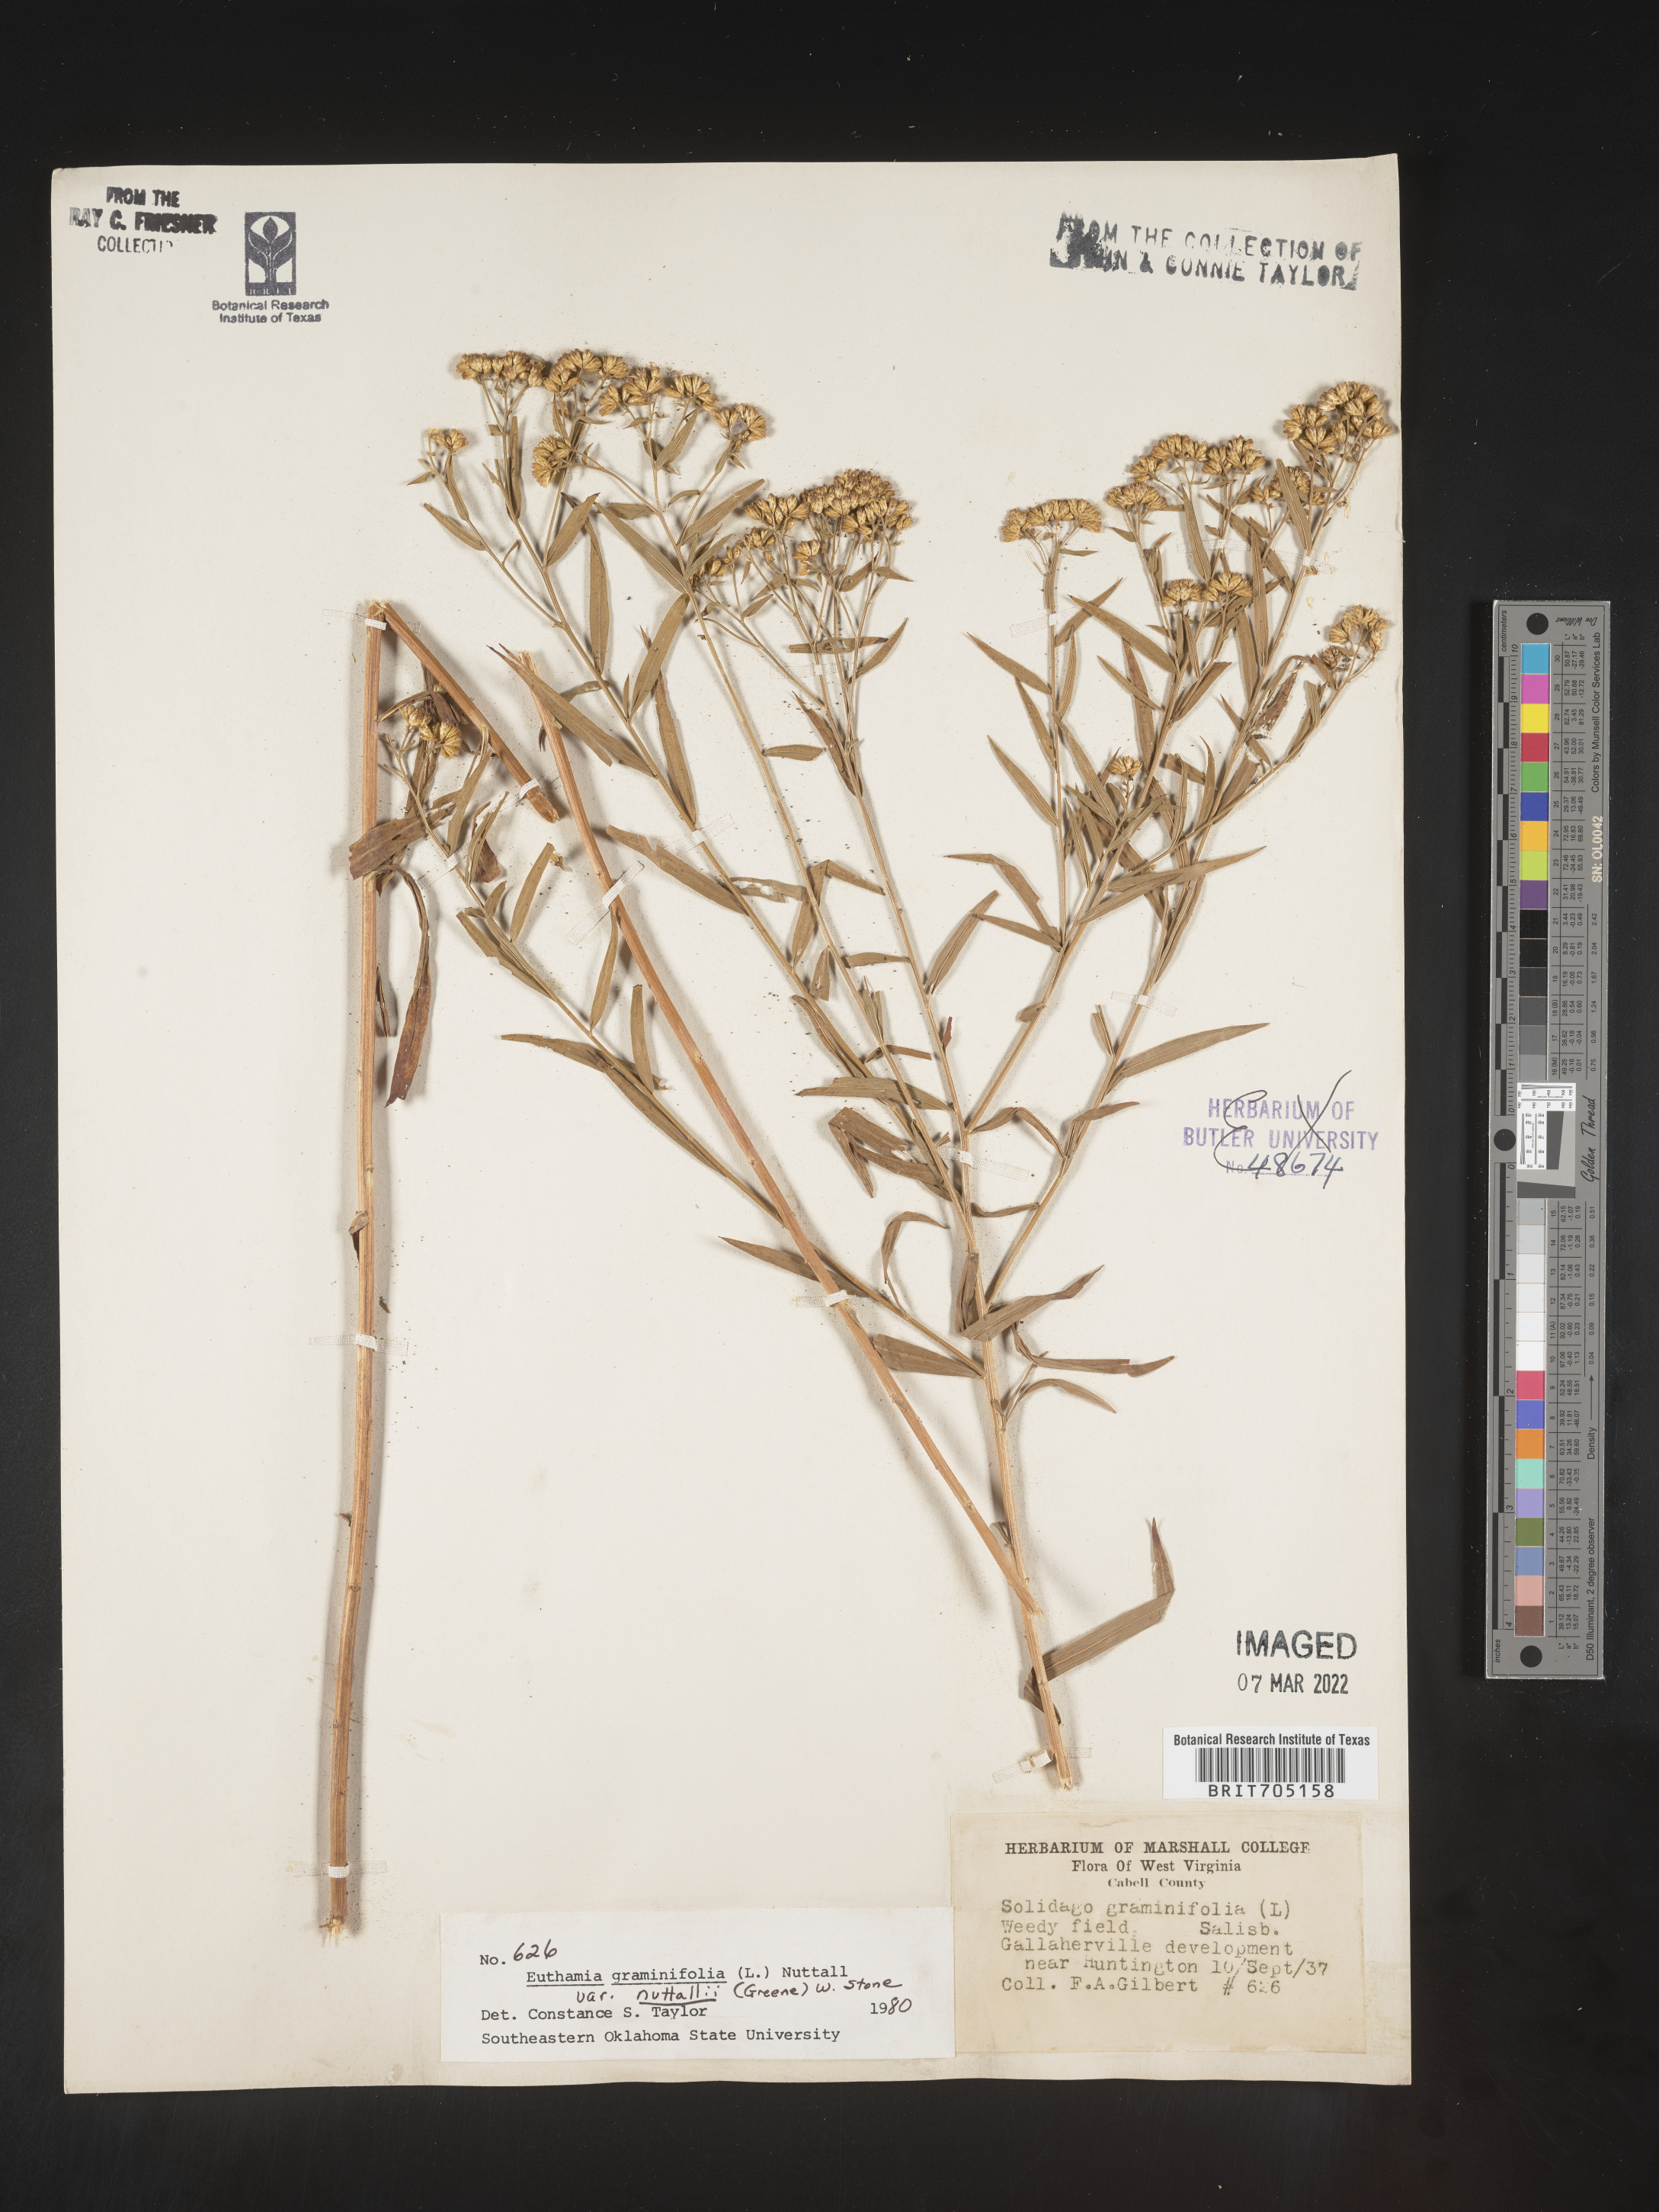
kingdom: Plantae
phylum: Tracheophyta
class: Magnoliopsida
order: Asterales
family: Asteraceae
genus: Euthamia
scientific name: Euthamia graminifolia
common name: Common goldentop
